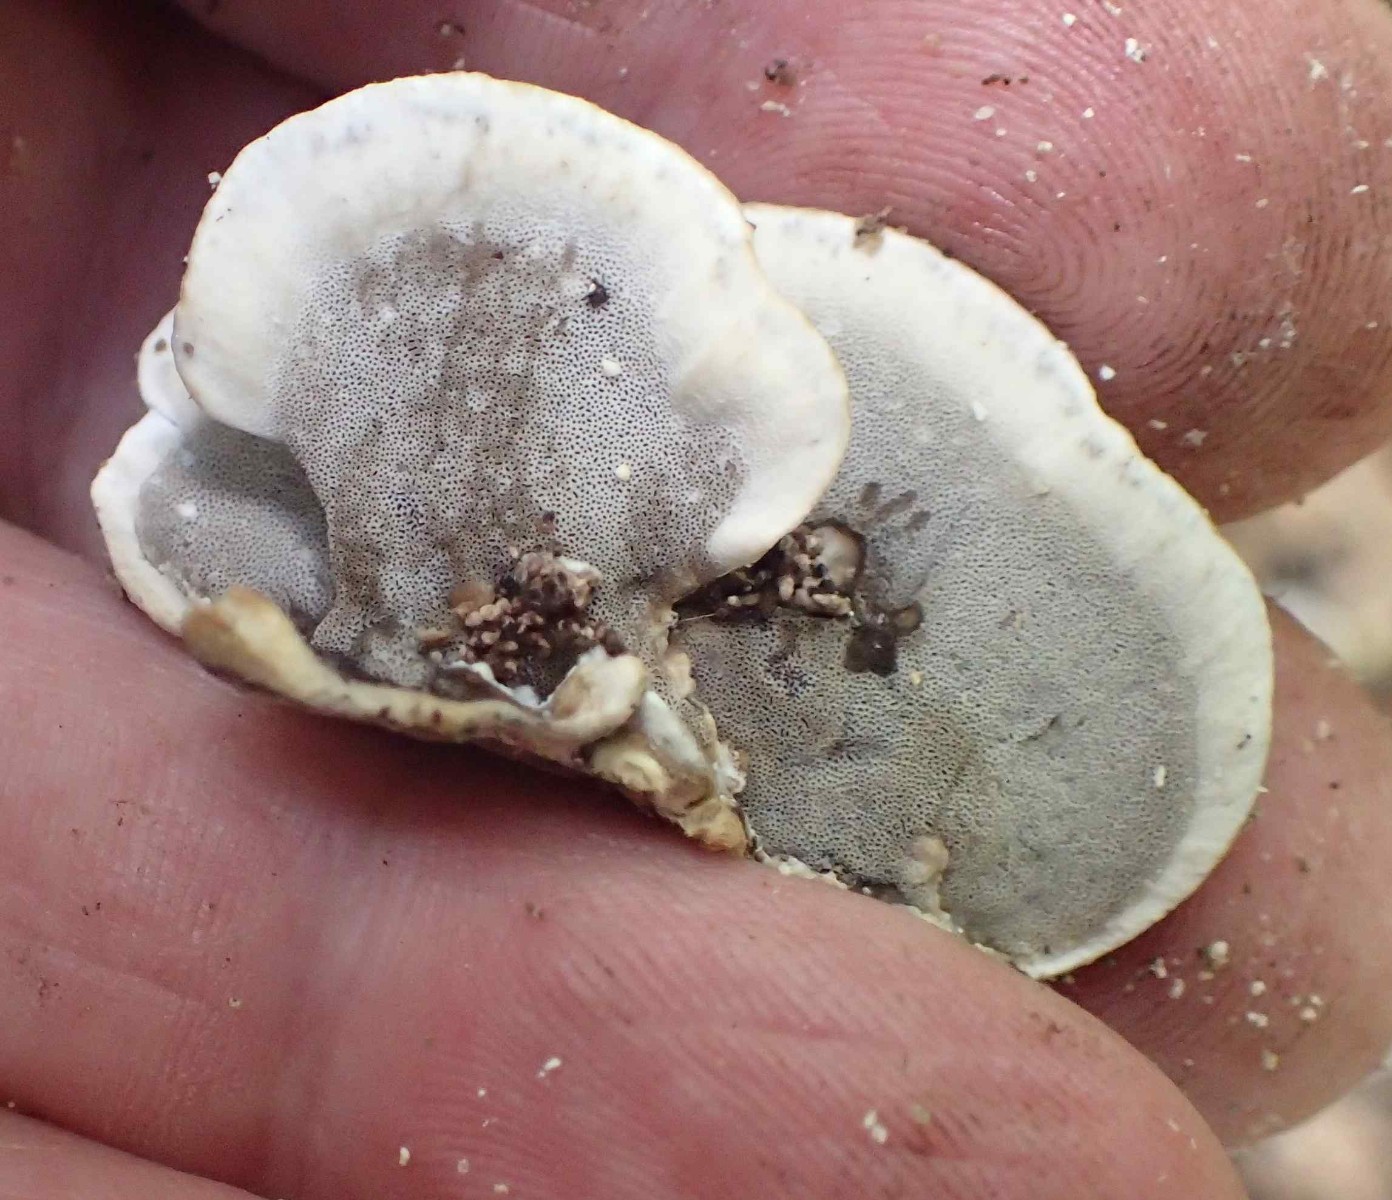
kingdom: Fungi
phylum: Basidiomycota
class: Agaricomycetes
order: Polyporales
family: Phanerochaetaceae
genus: Bjerkandera
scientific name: Bjerkandera adusta
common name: sveden sodporesvamp
